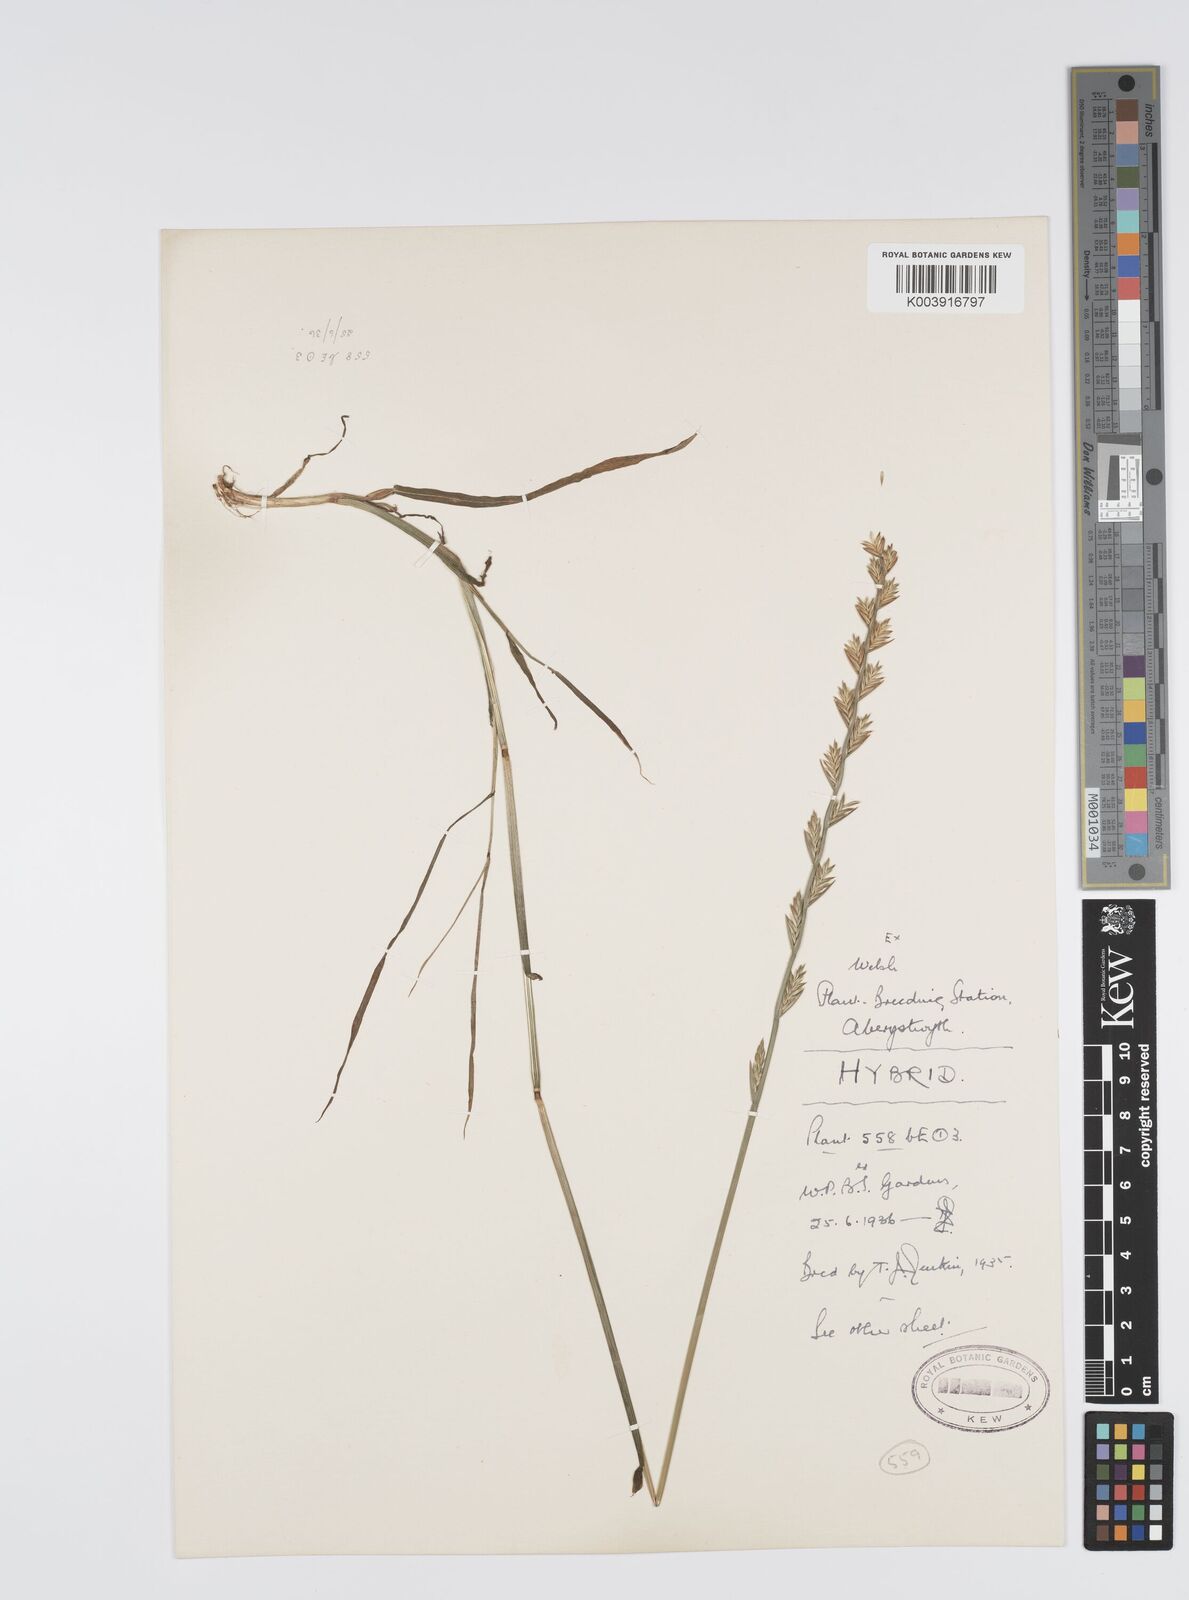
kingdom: Plantae
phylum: Tracheophyta
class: Liliopsida
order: Poales
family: Poaceae
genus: Lolium
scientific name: Lolium perenne
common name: Perennial ryegrass
